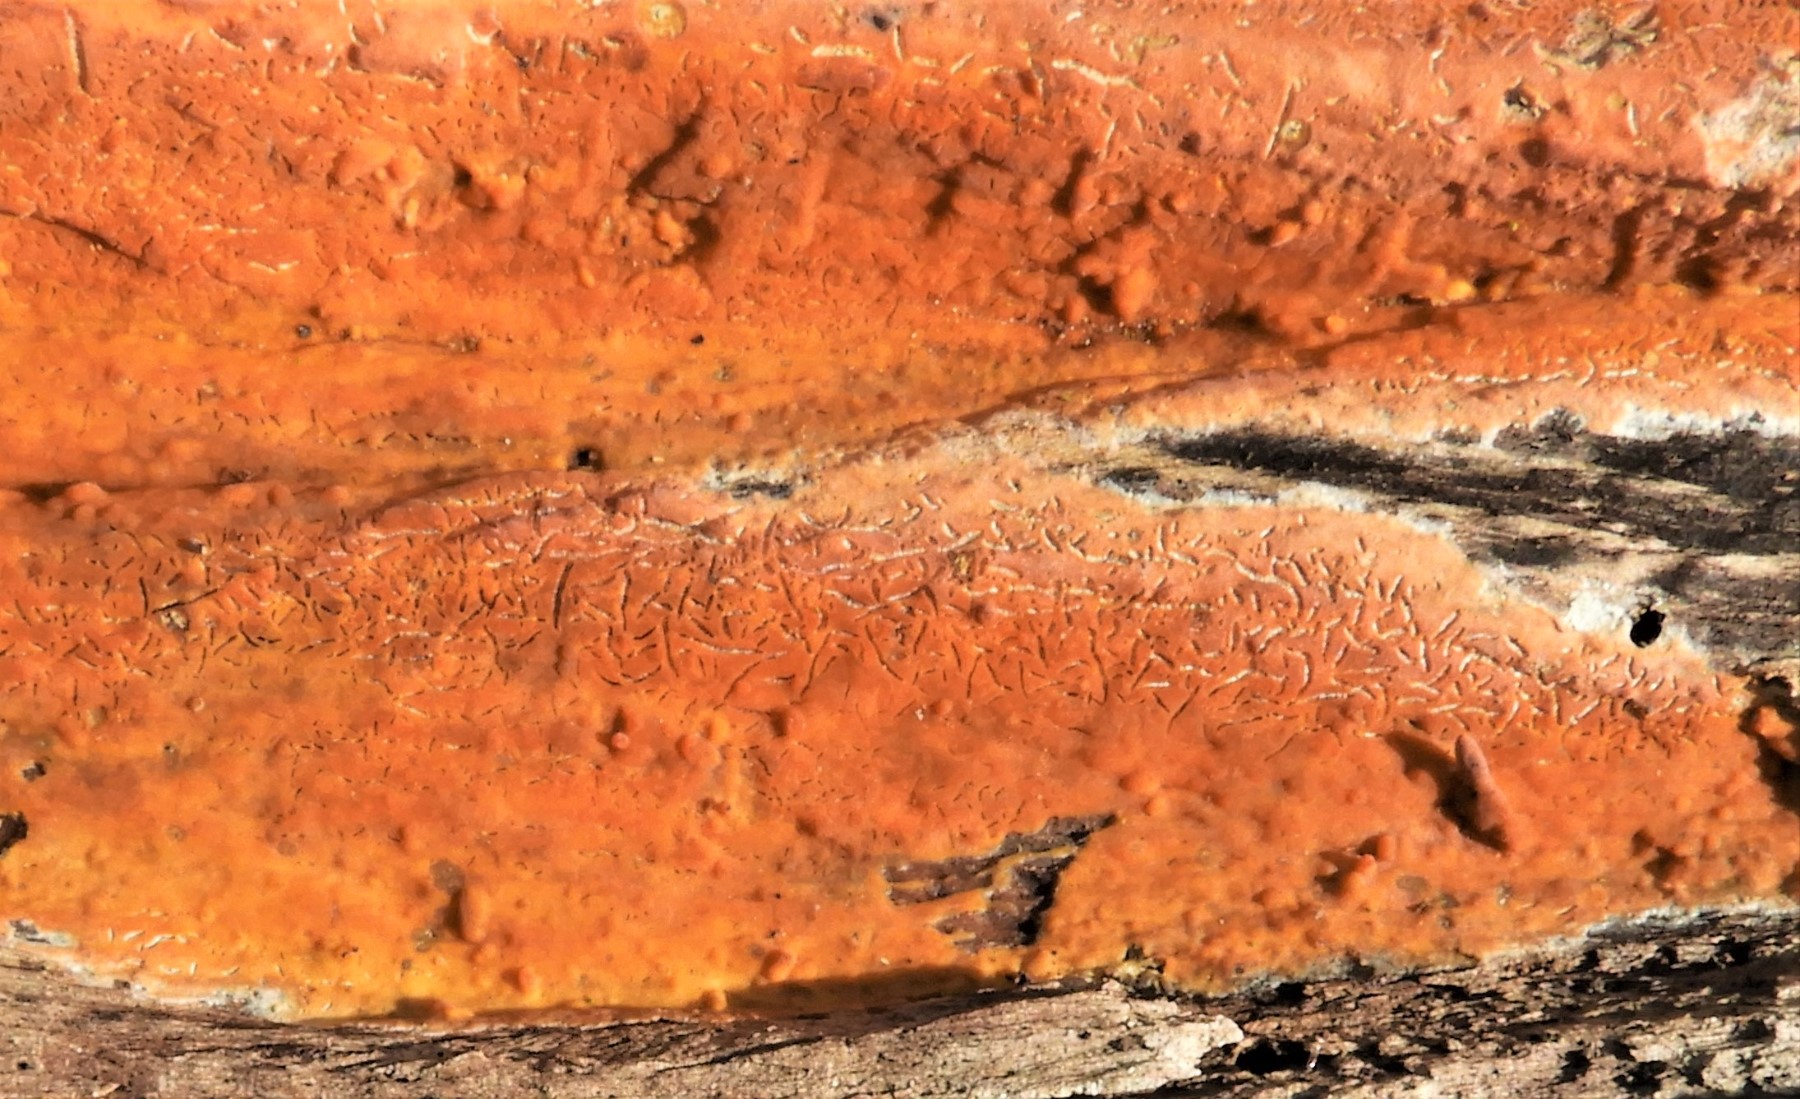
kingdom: Fungi
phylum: Basidiomycota
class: Agaricomycetes
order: Russulales
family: Peniophoraceae
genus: Peniophora
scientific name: Peniophora incarnata
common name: laksefarvet voksskind
